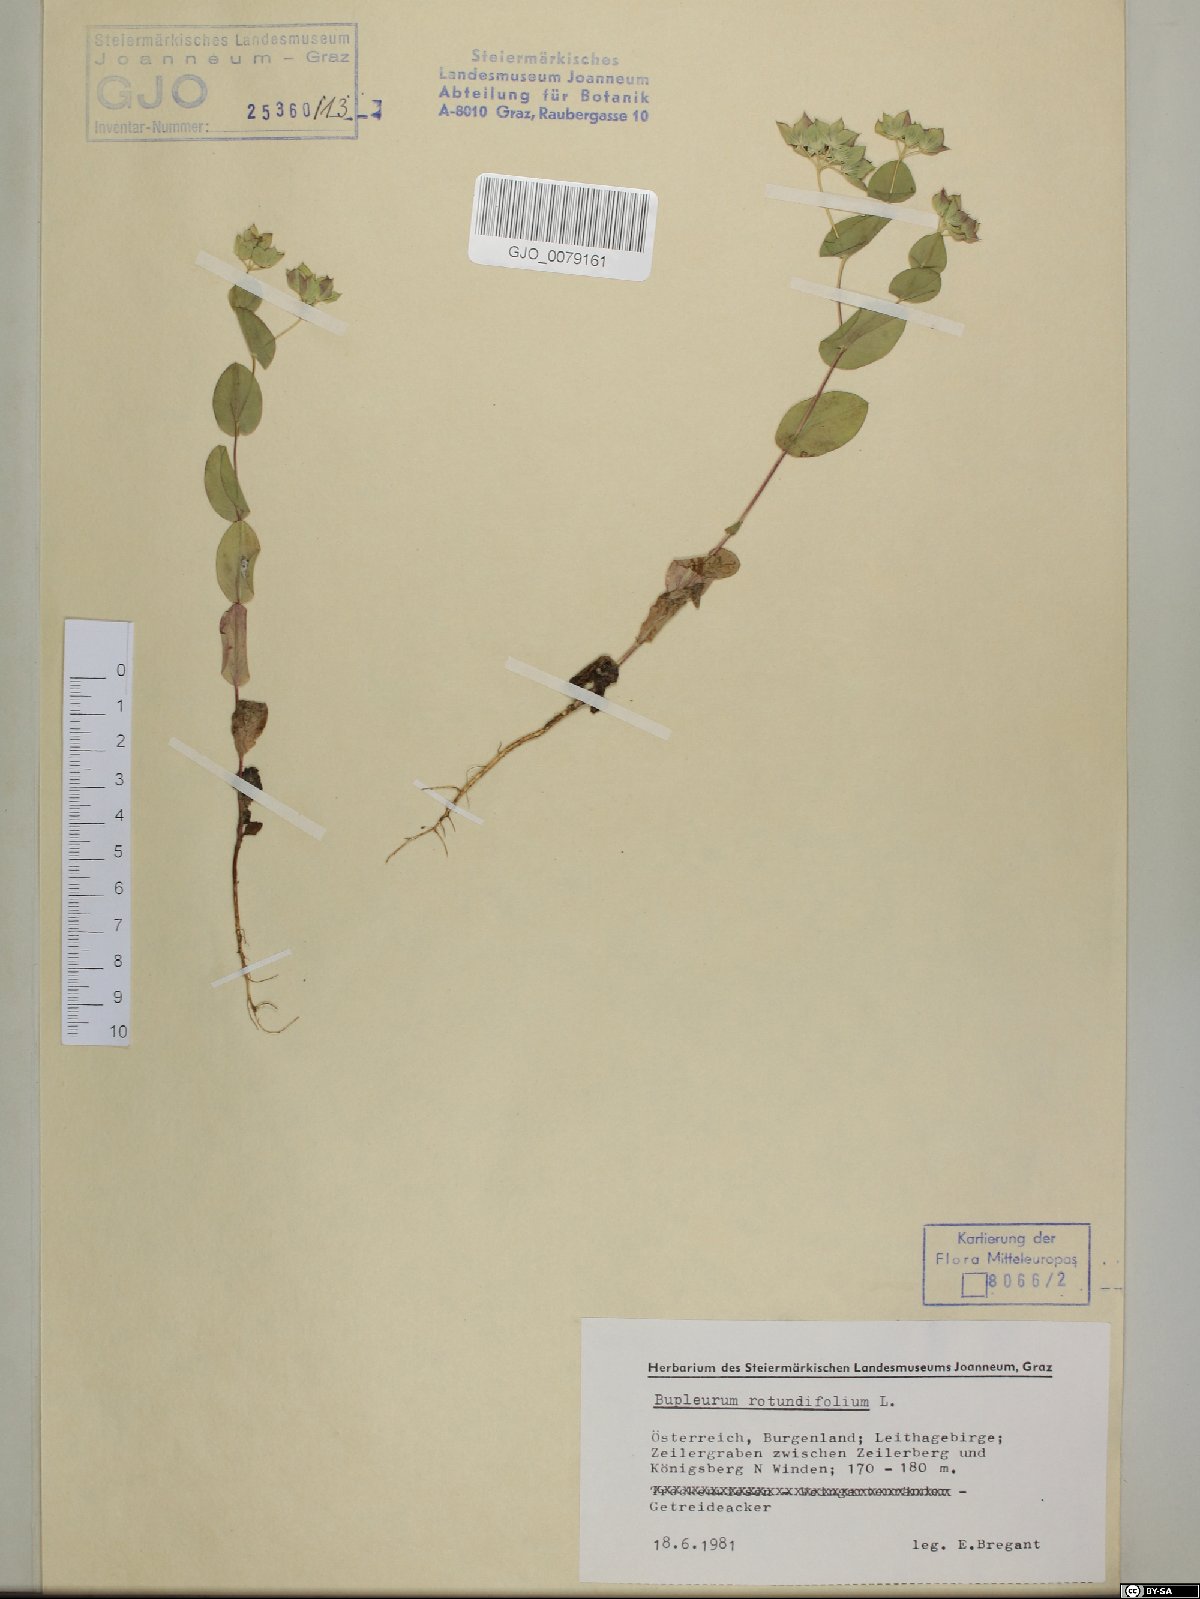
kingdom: Plantae
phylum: Tracheophyta
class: Magnoliopsida
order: Apiales
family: Apiaceae
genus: Bupleurum
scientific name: Bupleurum rotundifolium
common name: Thorow-wax
